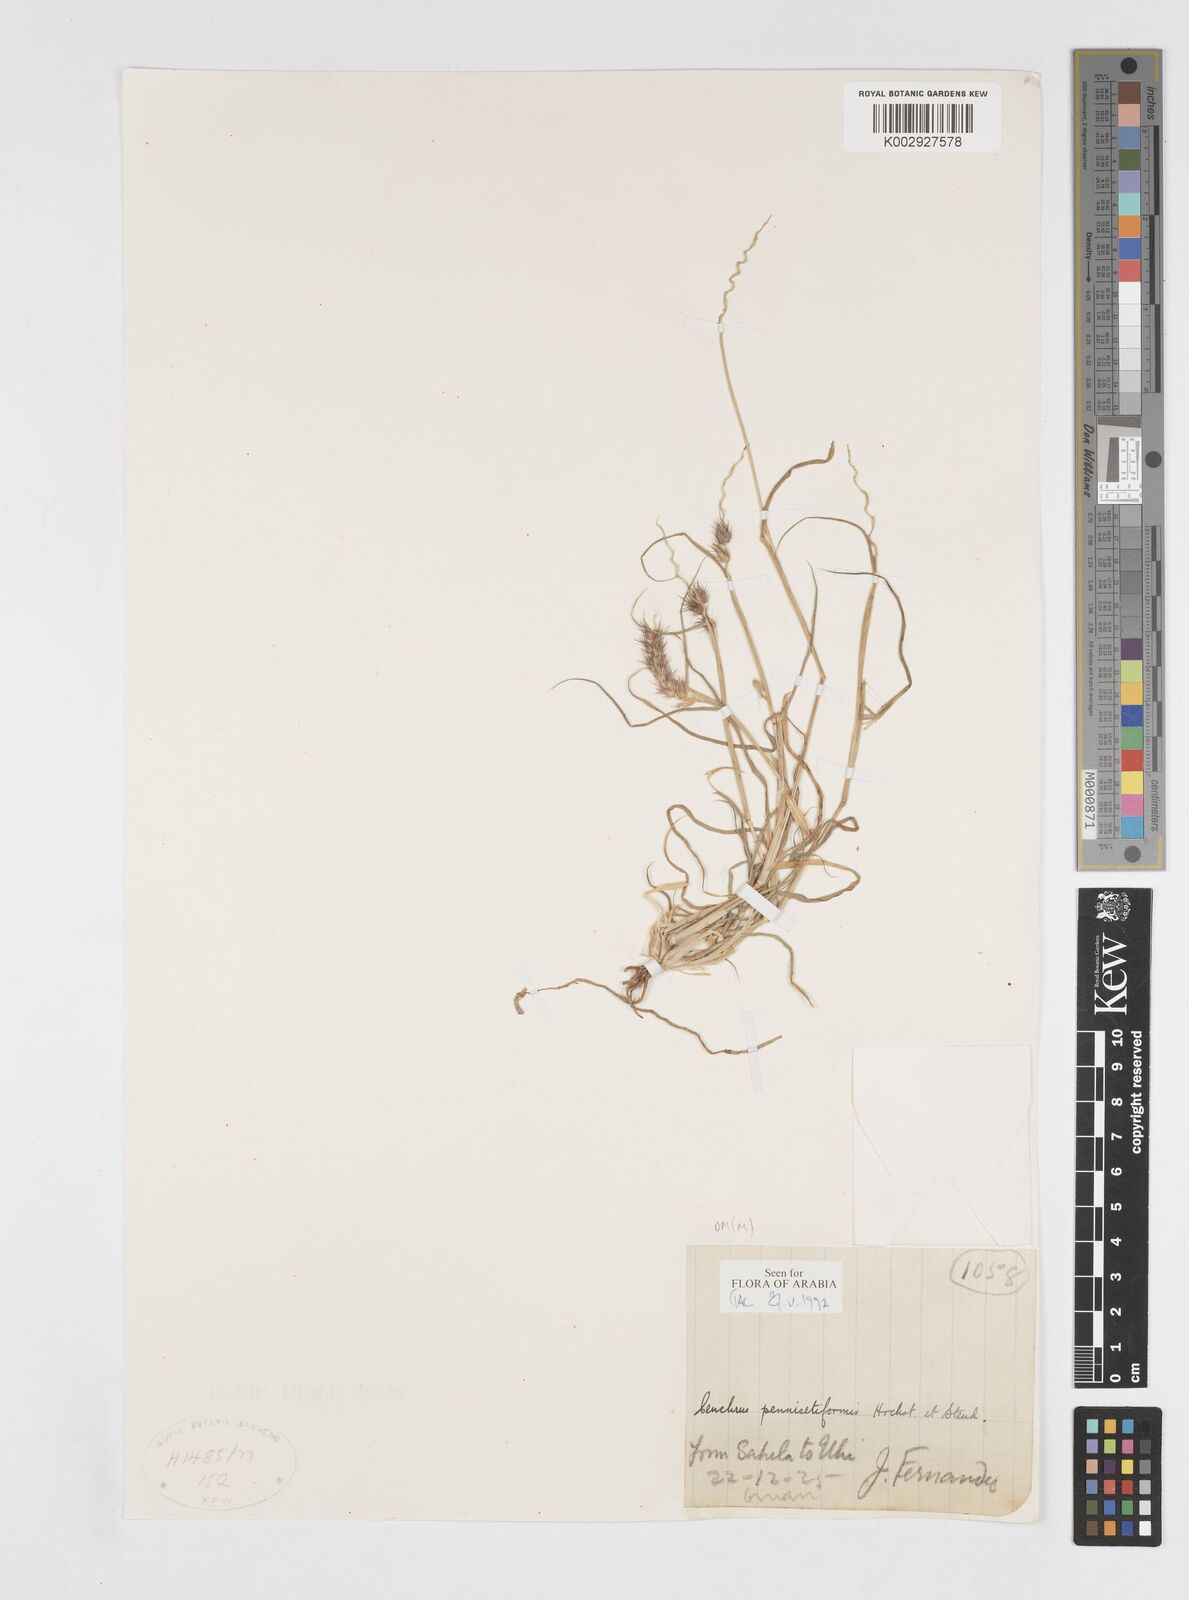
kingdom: Plantae
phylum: Tracheophyta
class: Liliopsida
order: Poales
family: Poaceae
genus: Cenchrus
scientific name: Cenchrus pennisetiformis
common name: Cloncurry
